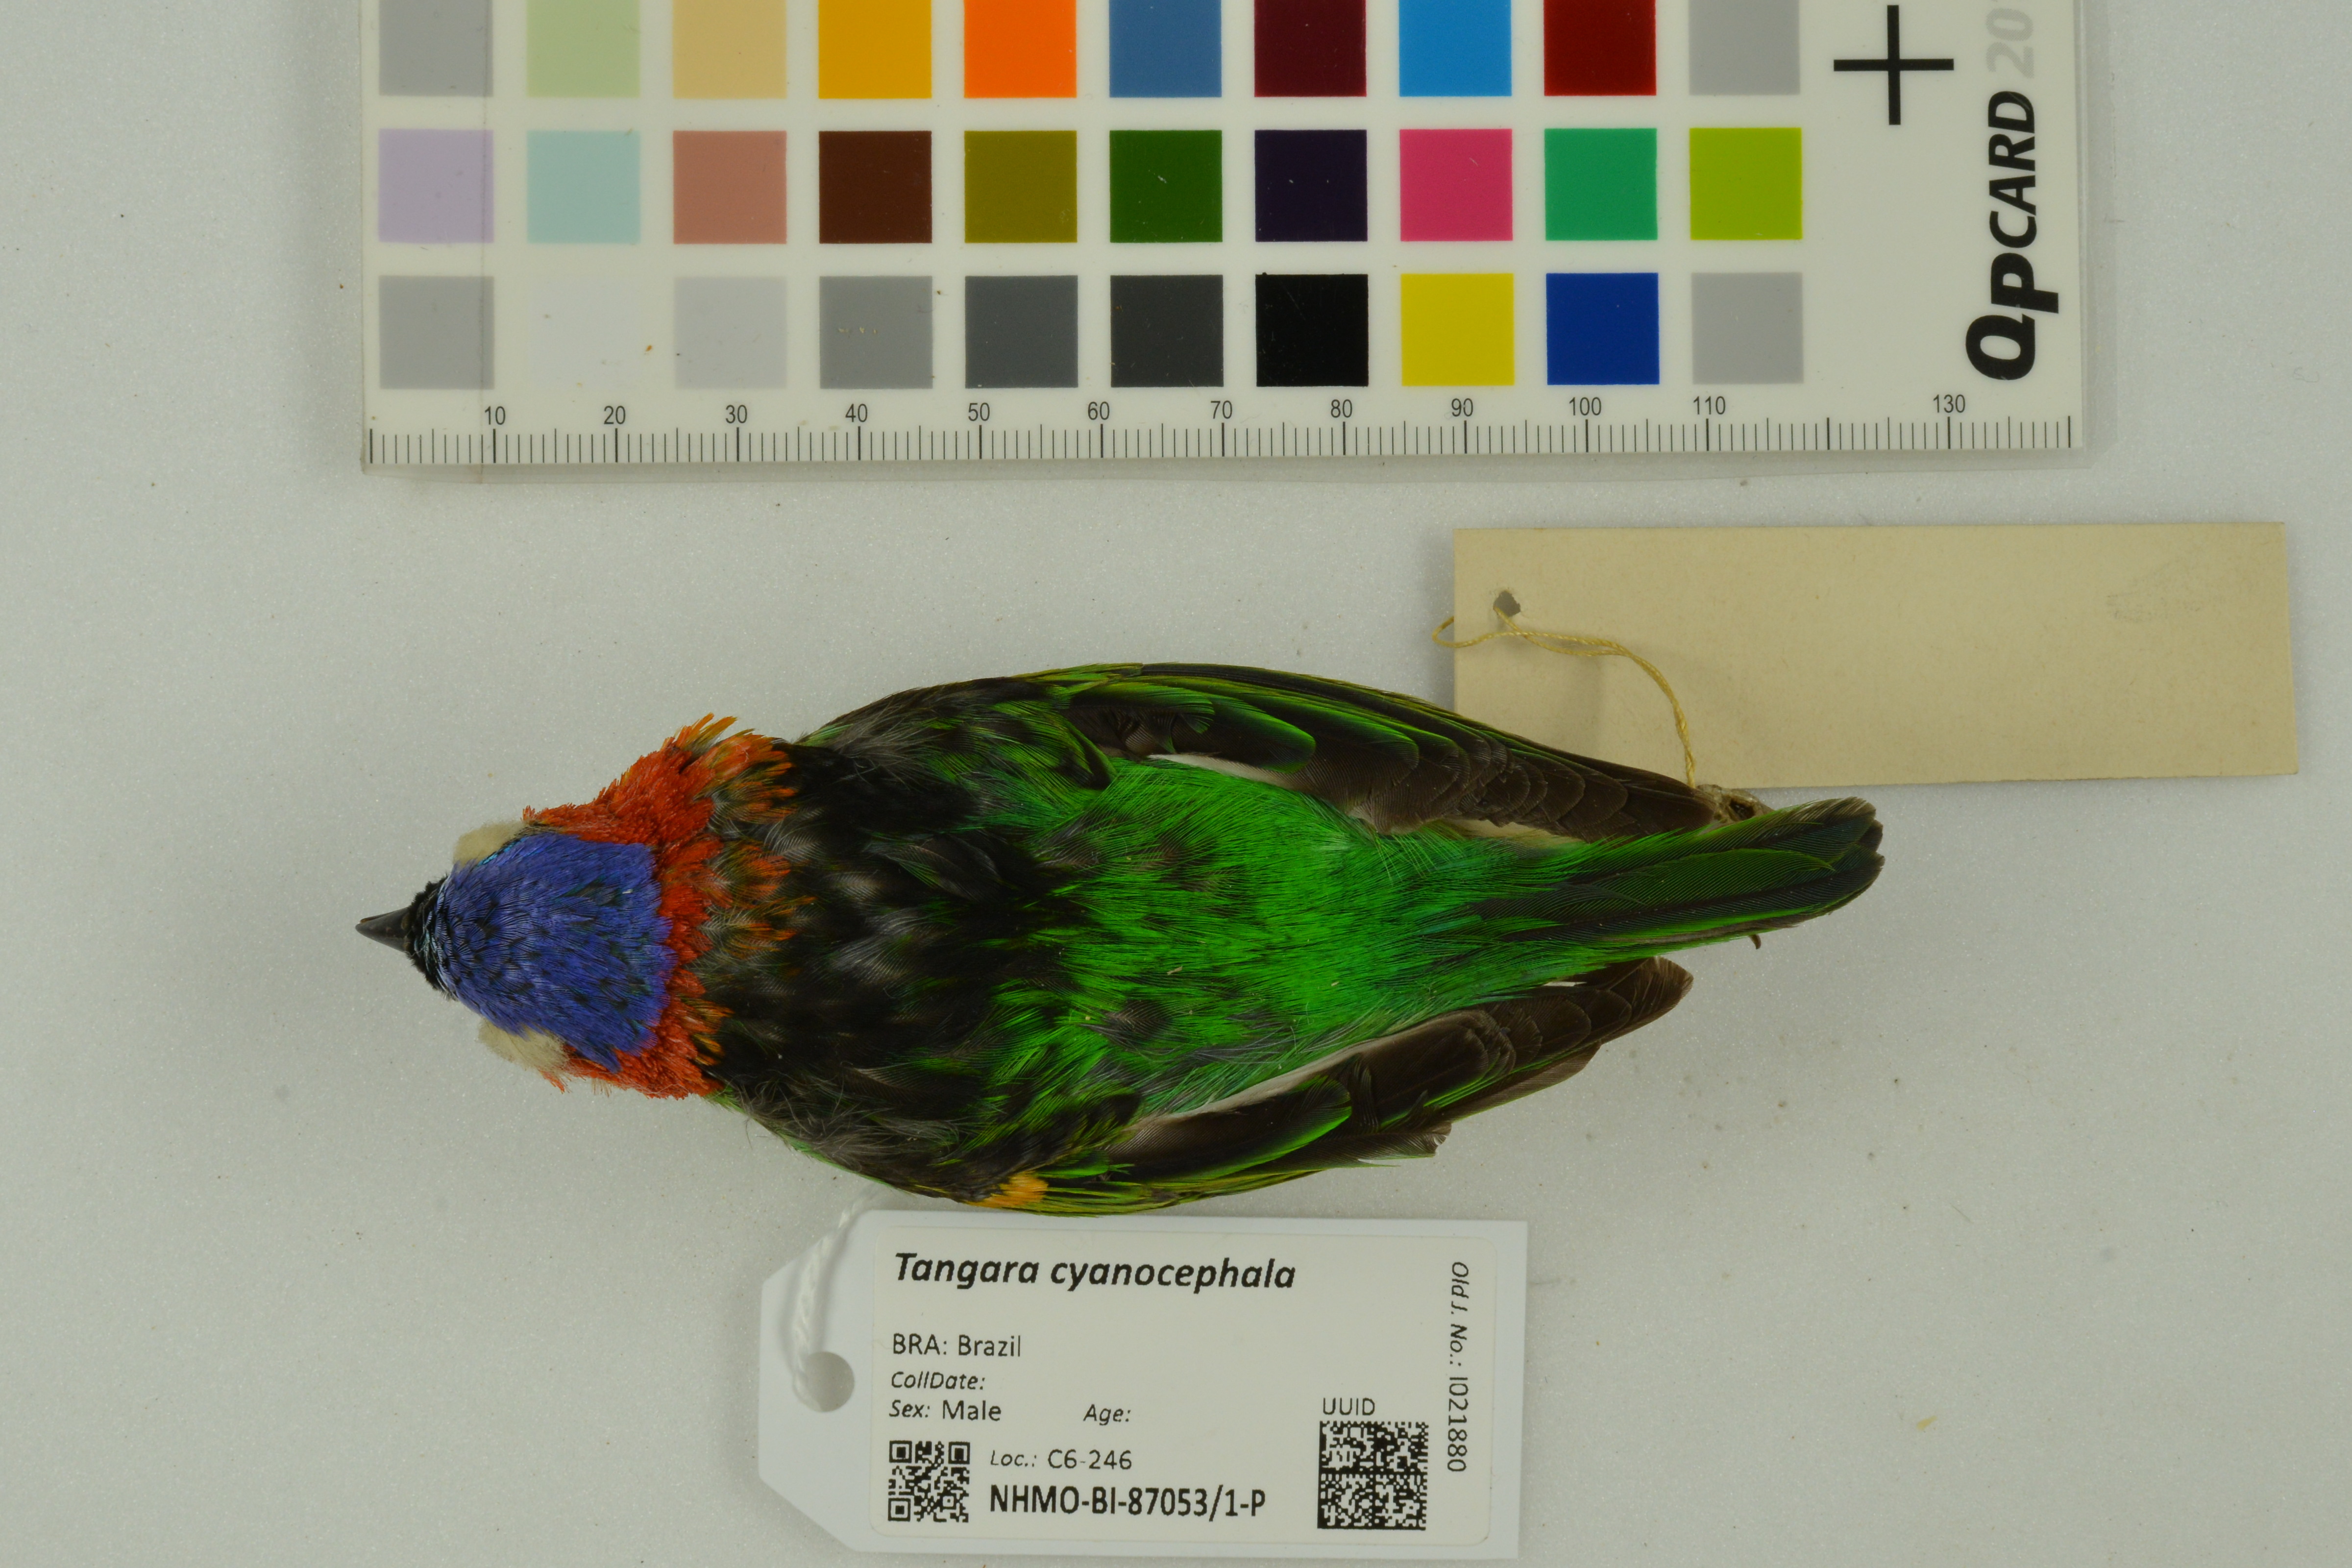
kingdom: Animalia
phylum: Chordata
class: Aves
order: Passeriformes
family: Thraupidae
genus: Tangara
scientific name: Tangara cyanocephala
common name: Red-necked tanager
